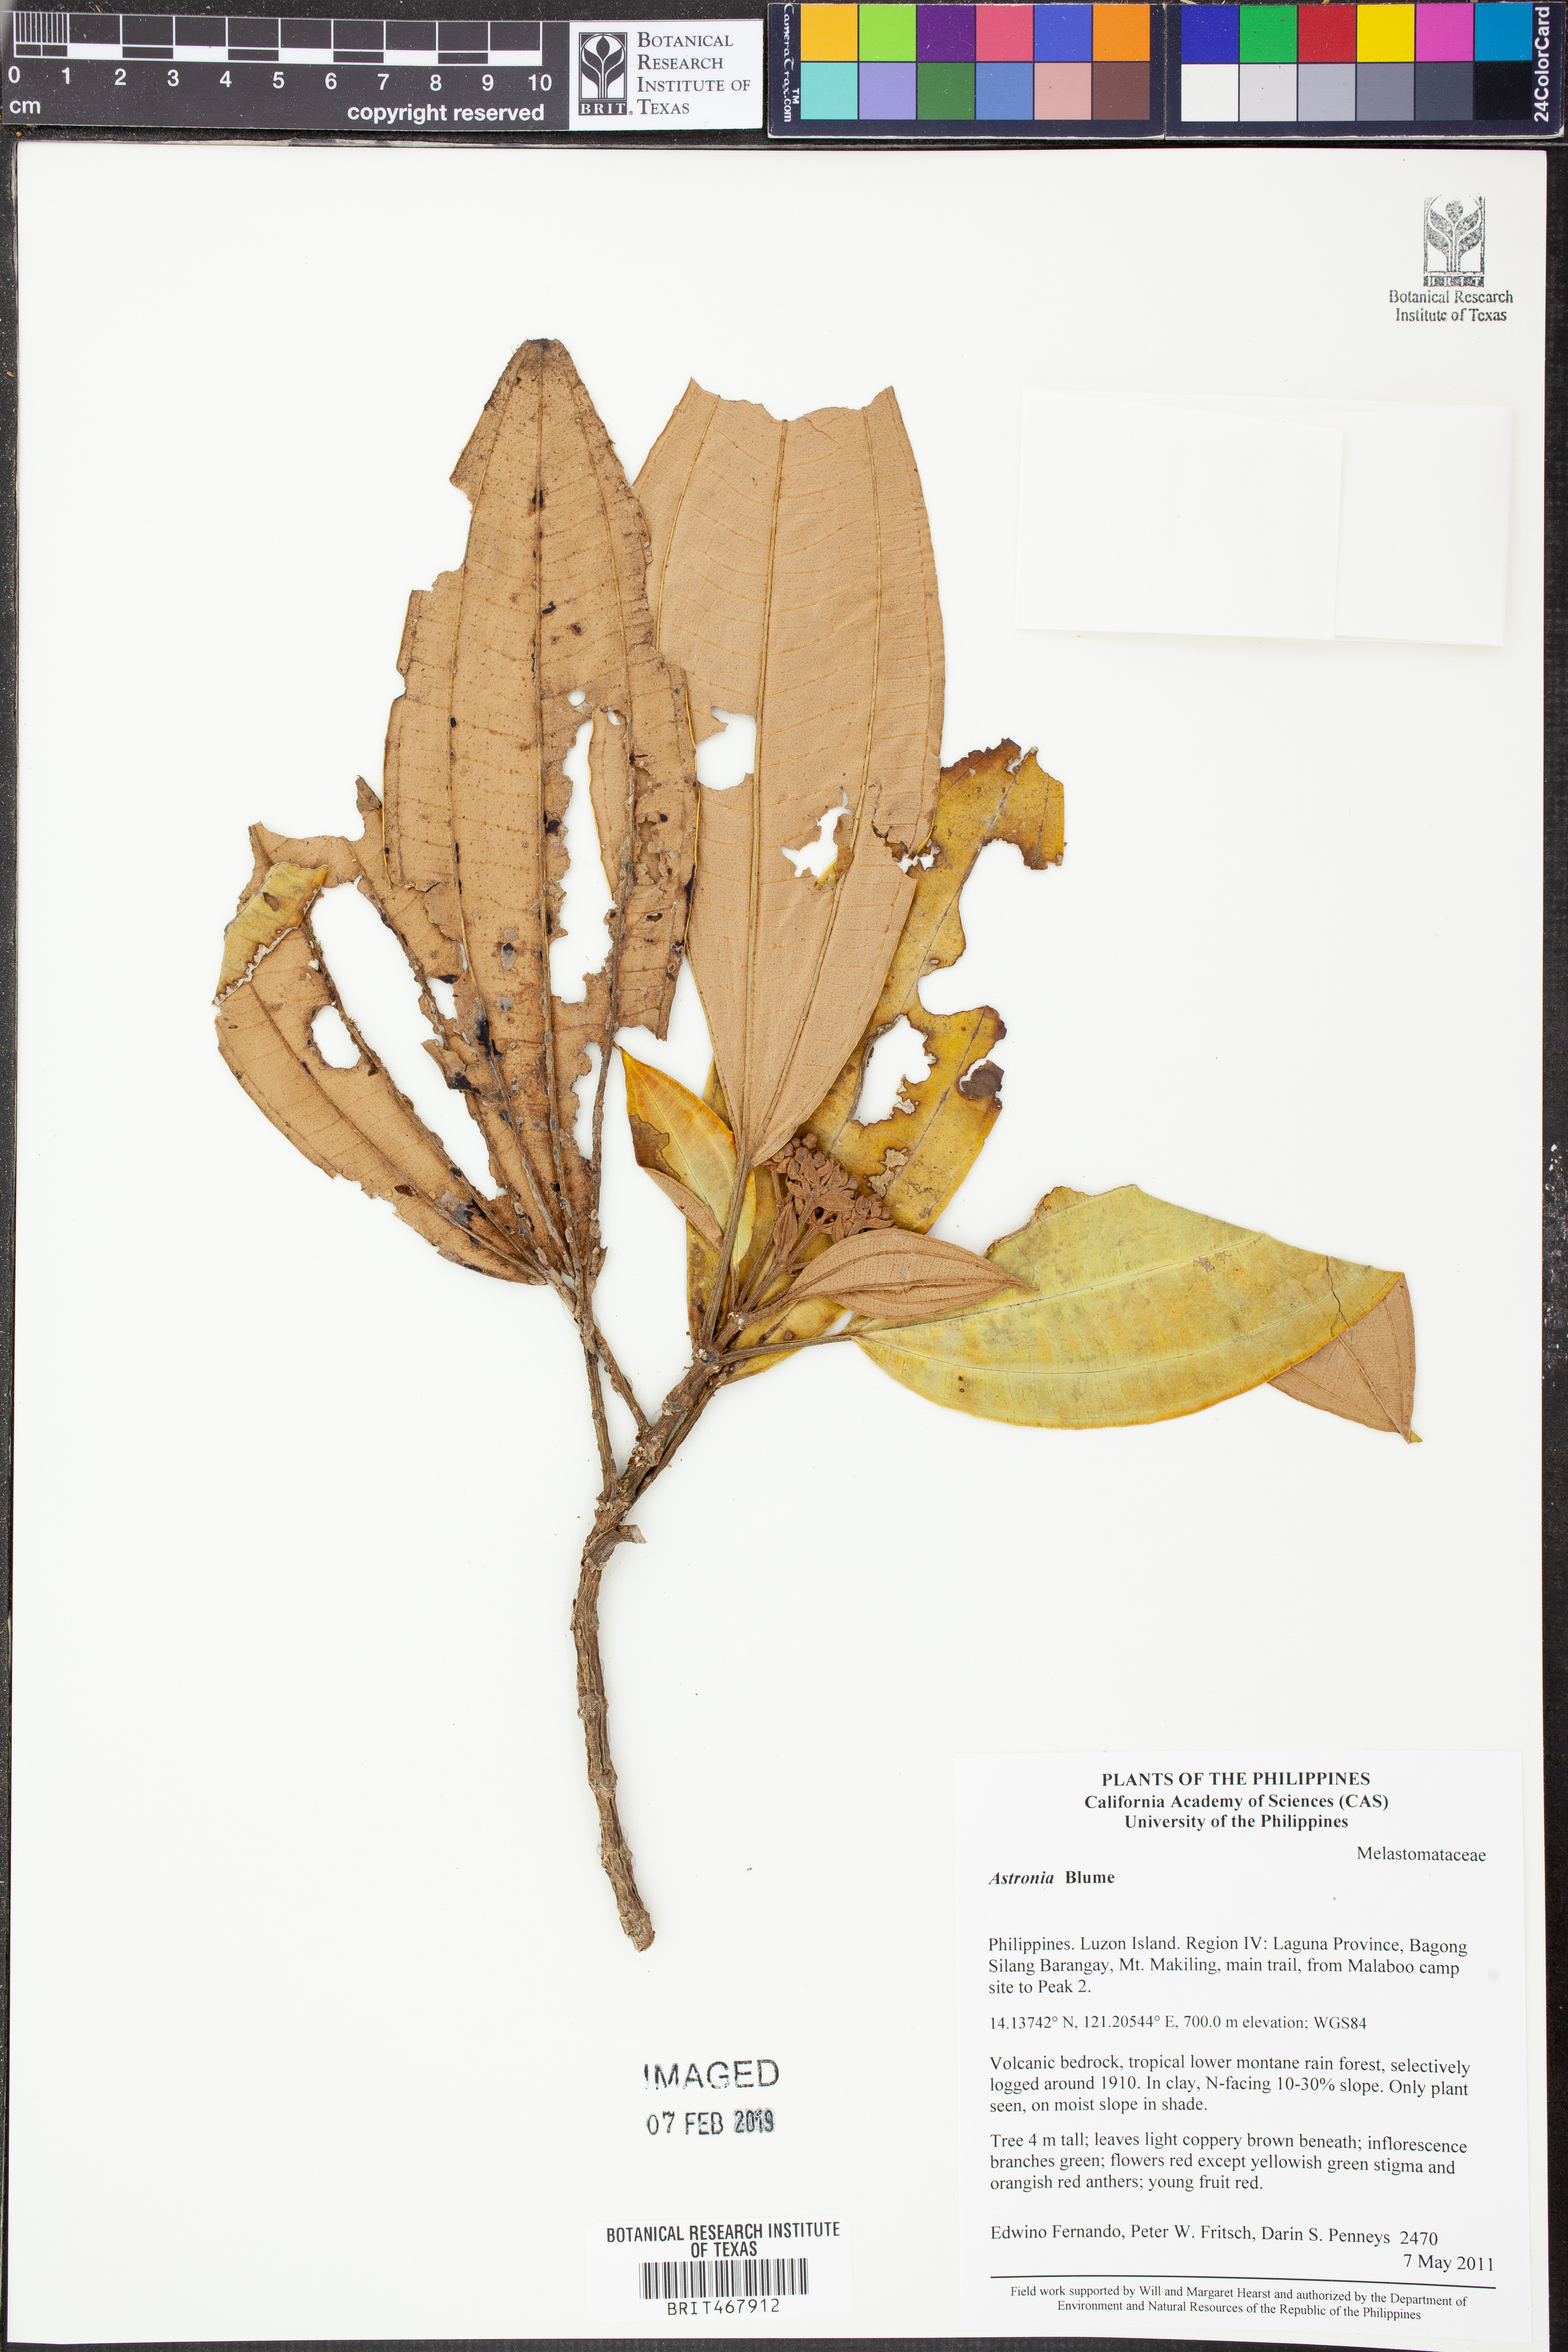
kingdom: Plantae
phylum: Tracheophyta
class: Magnoliopsida
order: Myrtales
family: Melastomataceae
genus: Astronia
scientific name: Astronia
